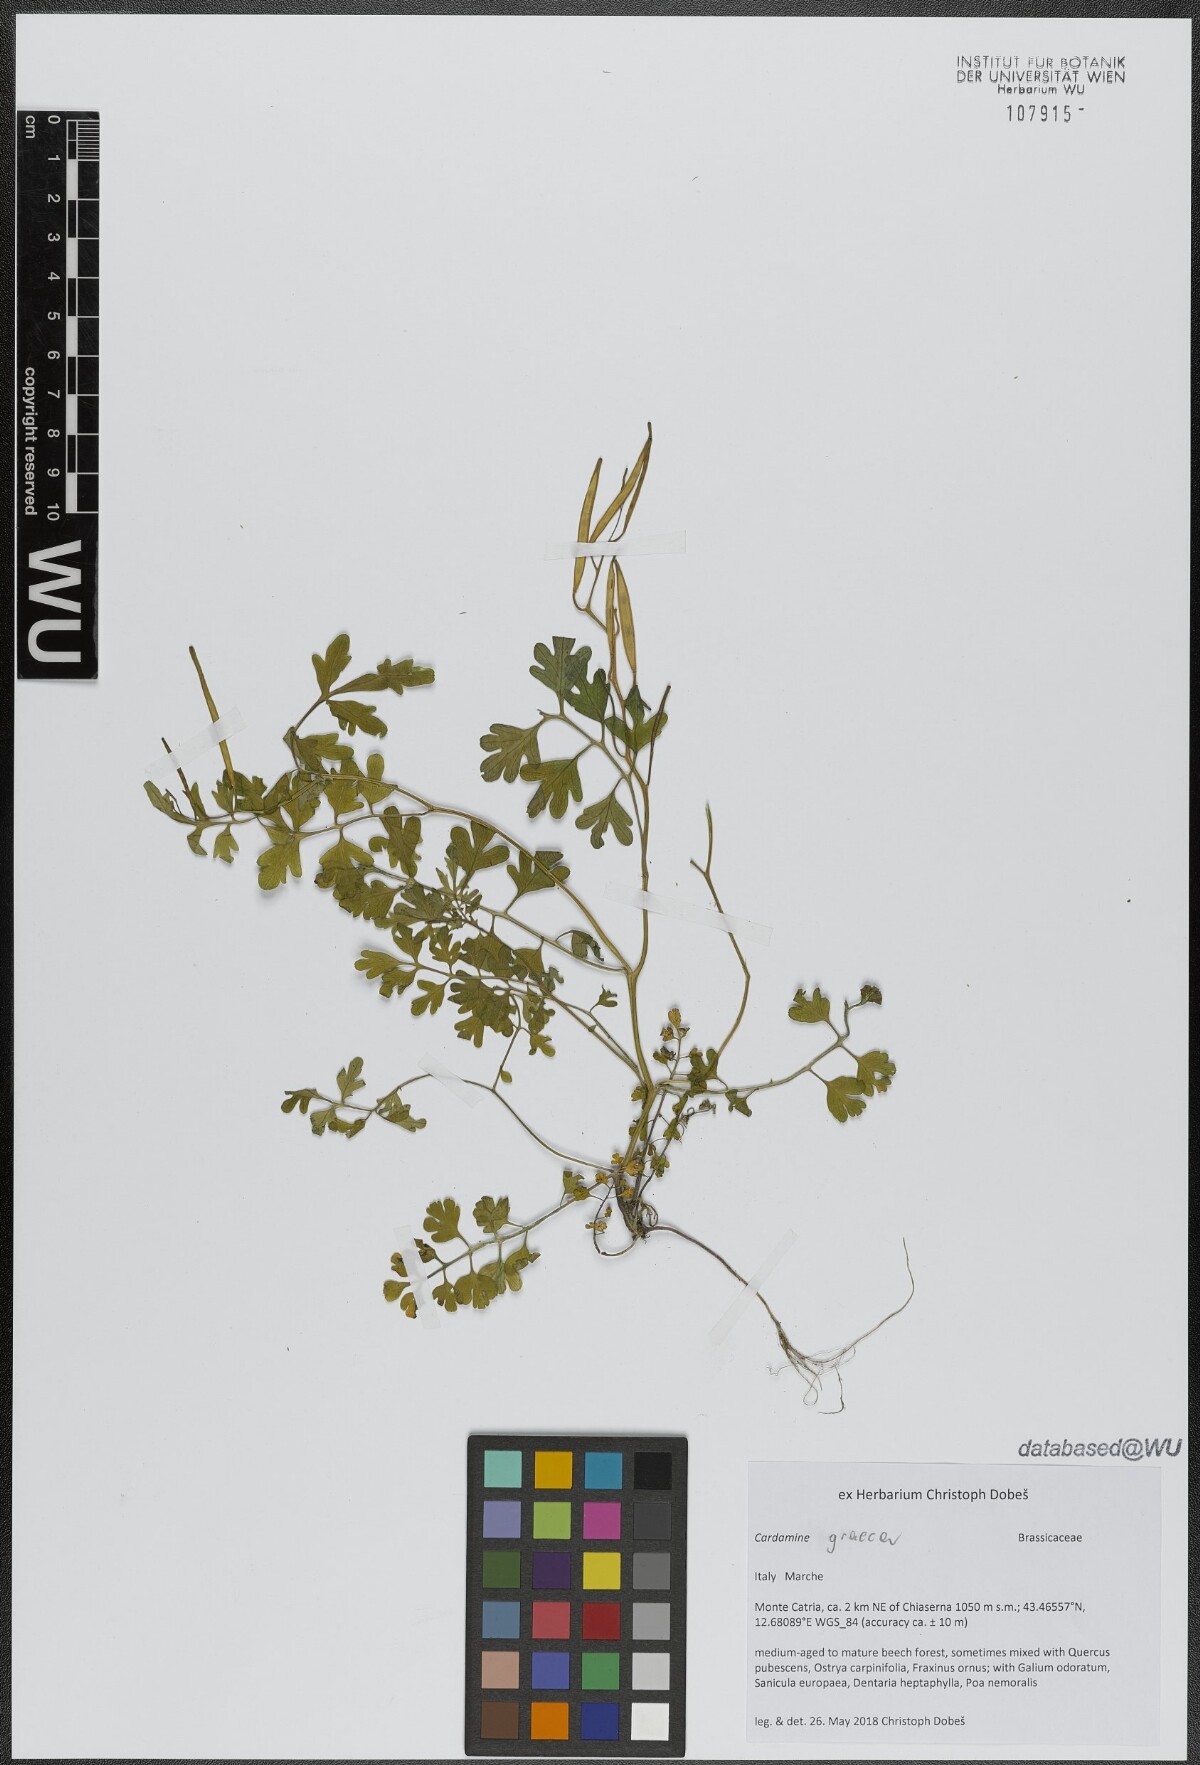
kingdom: Plantae
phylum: Tracheophyta
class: Magnoliopsida
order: Brassicales
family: Brassicaceae
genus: Cardamine
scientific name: Cardamine graeca
